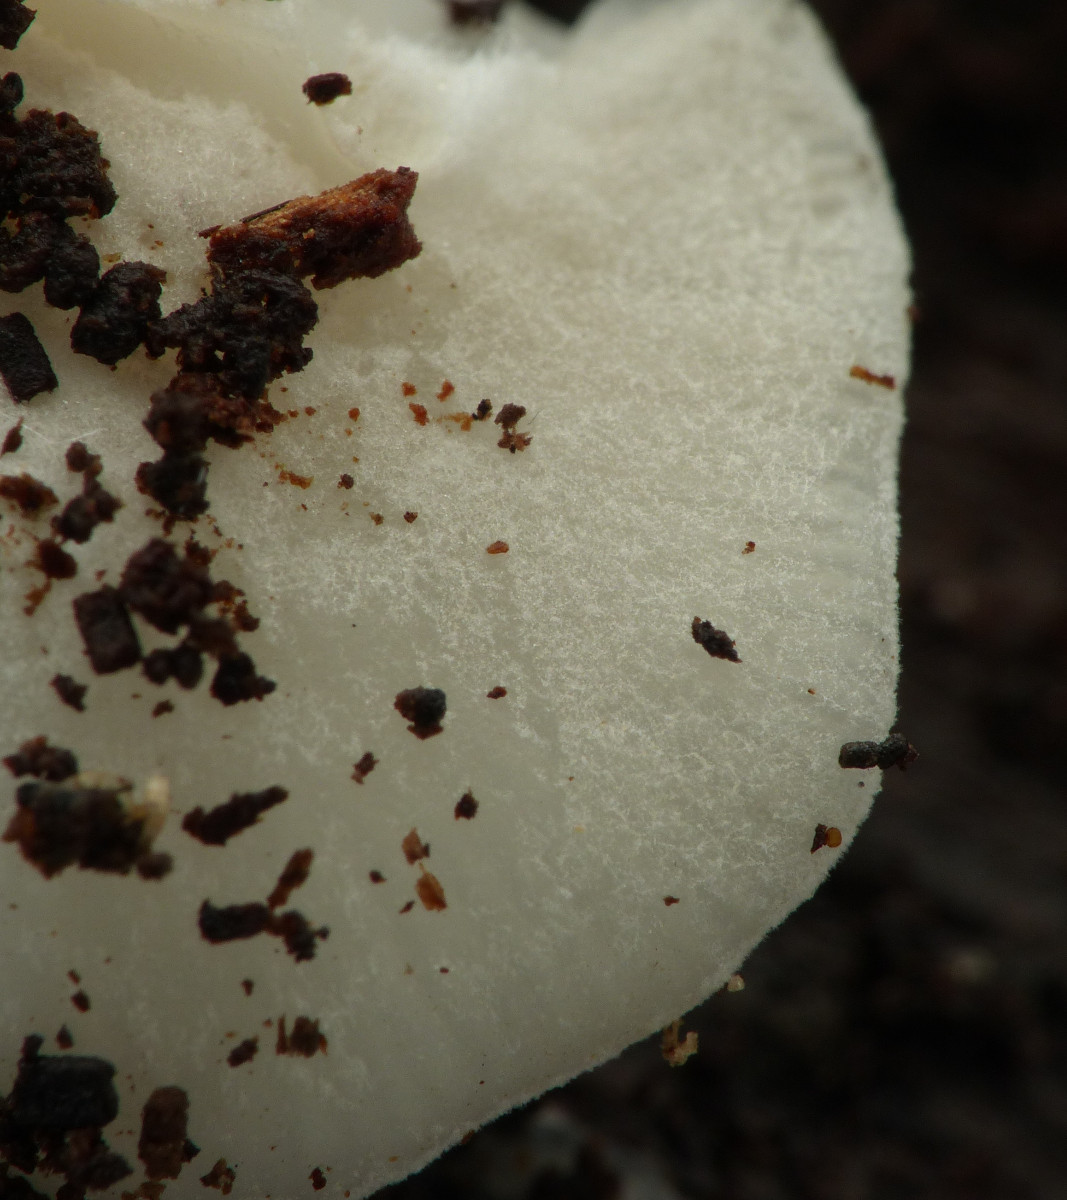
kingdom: Fungi
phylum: Basidiomycota
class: Agaricomycetes
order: Agaricales
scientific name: Agaricales
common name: champignonordenen
